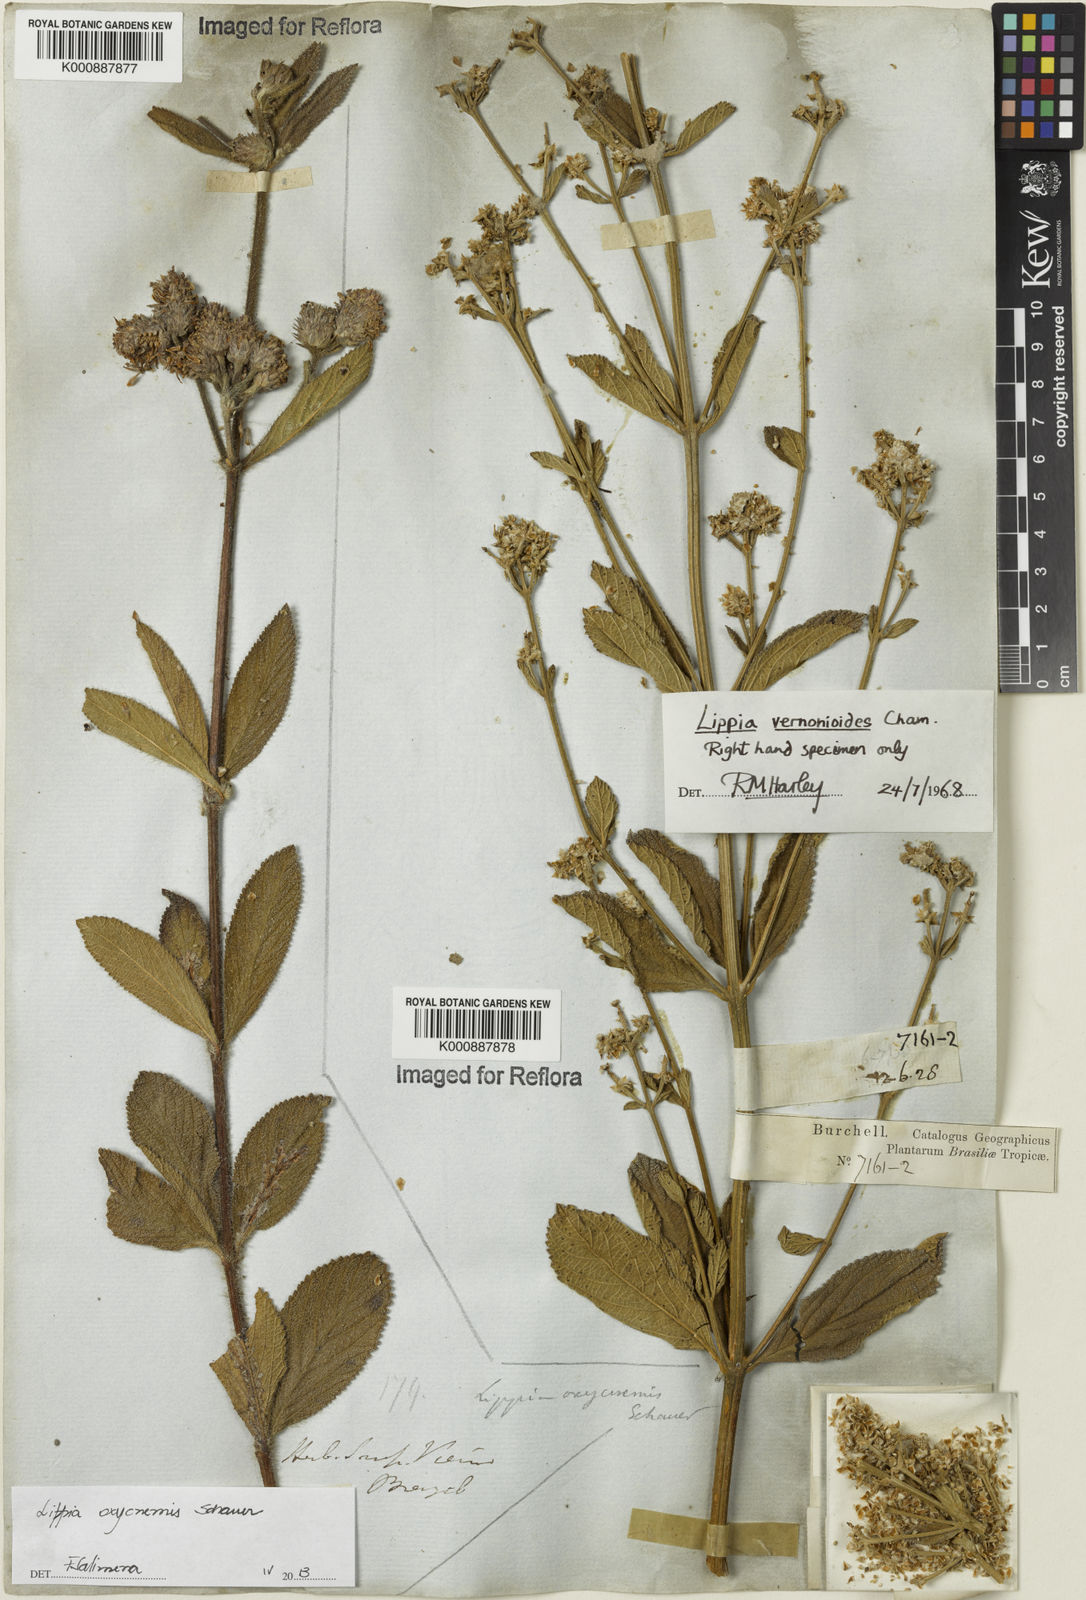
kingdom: Plantae
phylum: Tracheophyta
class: Magnoliopsida
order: Lamiales
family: Verbenaceae
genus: Lippia
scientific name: Lippia vernonioides
